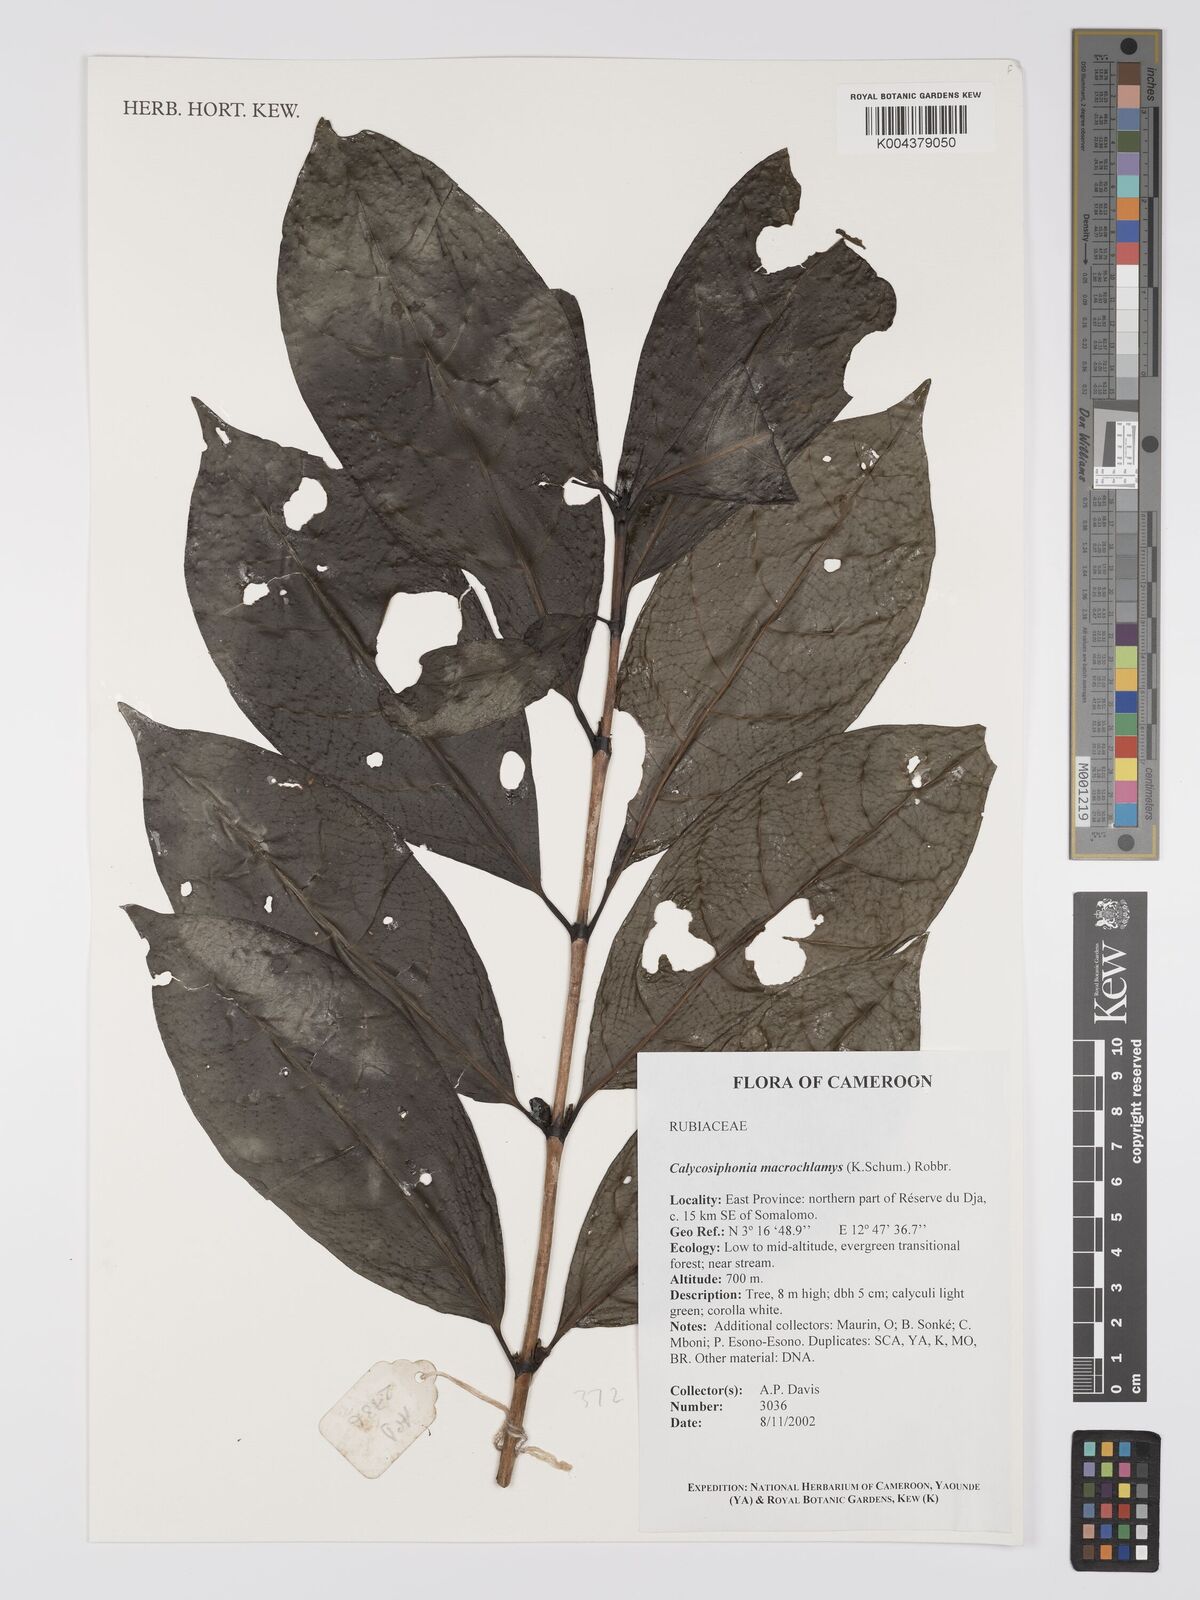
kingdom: Plantae
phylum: Tracheophyta
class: Magnoliopsida
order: Gentianales
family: Rubiaceae
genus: Calycosiphonia
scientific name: Calycosiphonia macrochlamys
